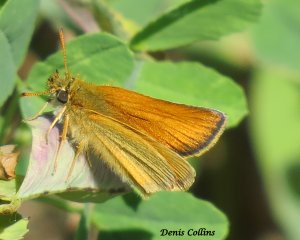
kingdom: Animalia
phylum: Arthropoda
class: Insecta
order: Lepidoptera
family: Hesperiidae
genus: Thymelicus
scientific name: Thymelicus lineola
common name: European Skipper
